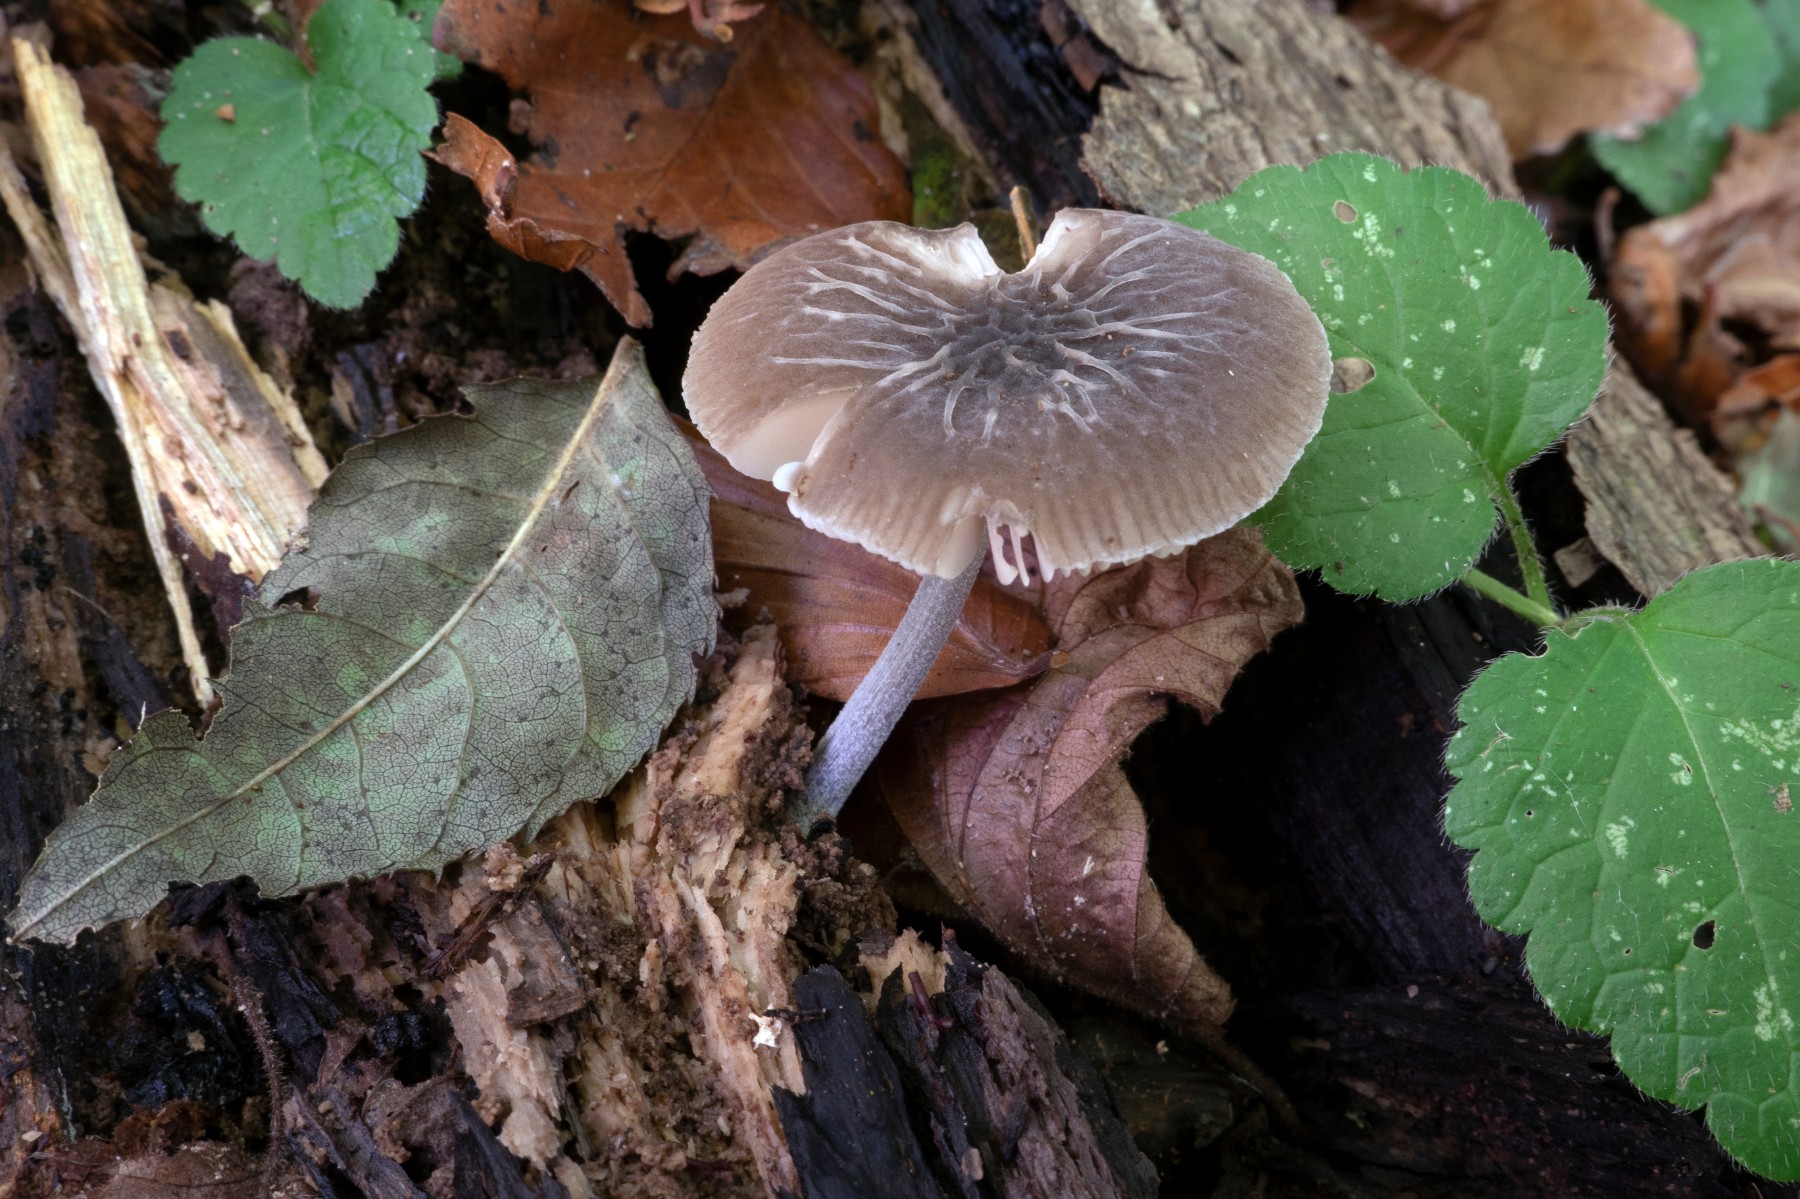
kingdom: Fungi
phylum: Basidiomycota
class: Agaricomycetes
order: Agaricales
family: Pluteaceae
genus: Pluteus
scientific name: Pluteus
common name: gråstokket skærmhat
